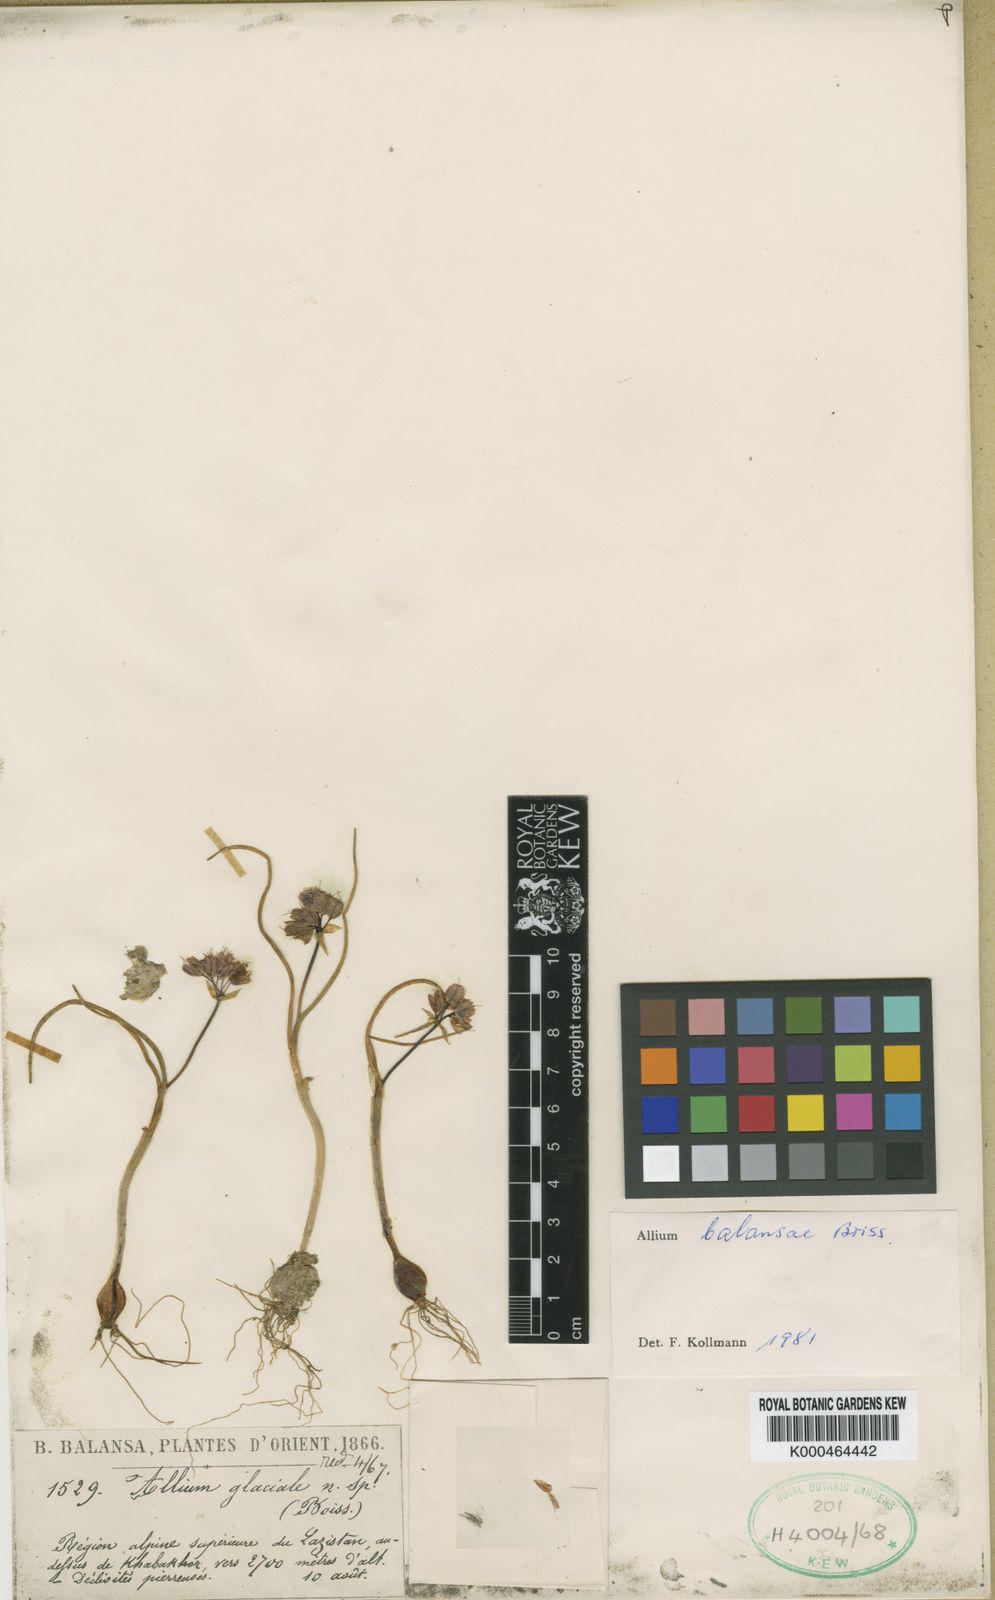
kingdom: Plantae
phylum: Tracheophyta
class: Liliopsida
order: Asparagales
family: Amaryllidaceae
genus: Allium
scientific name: Allium glaciale
